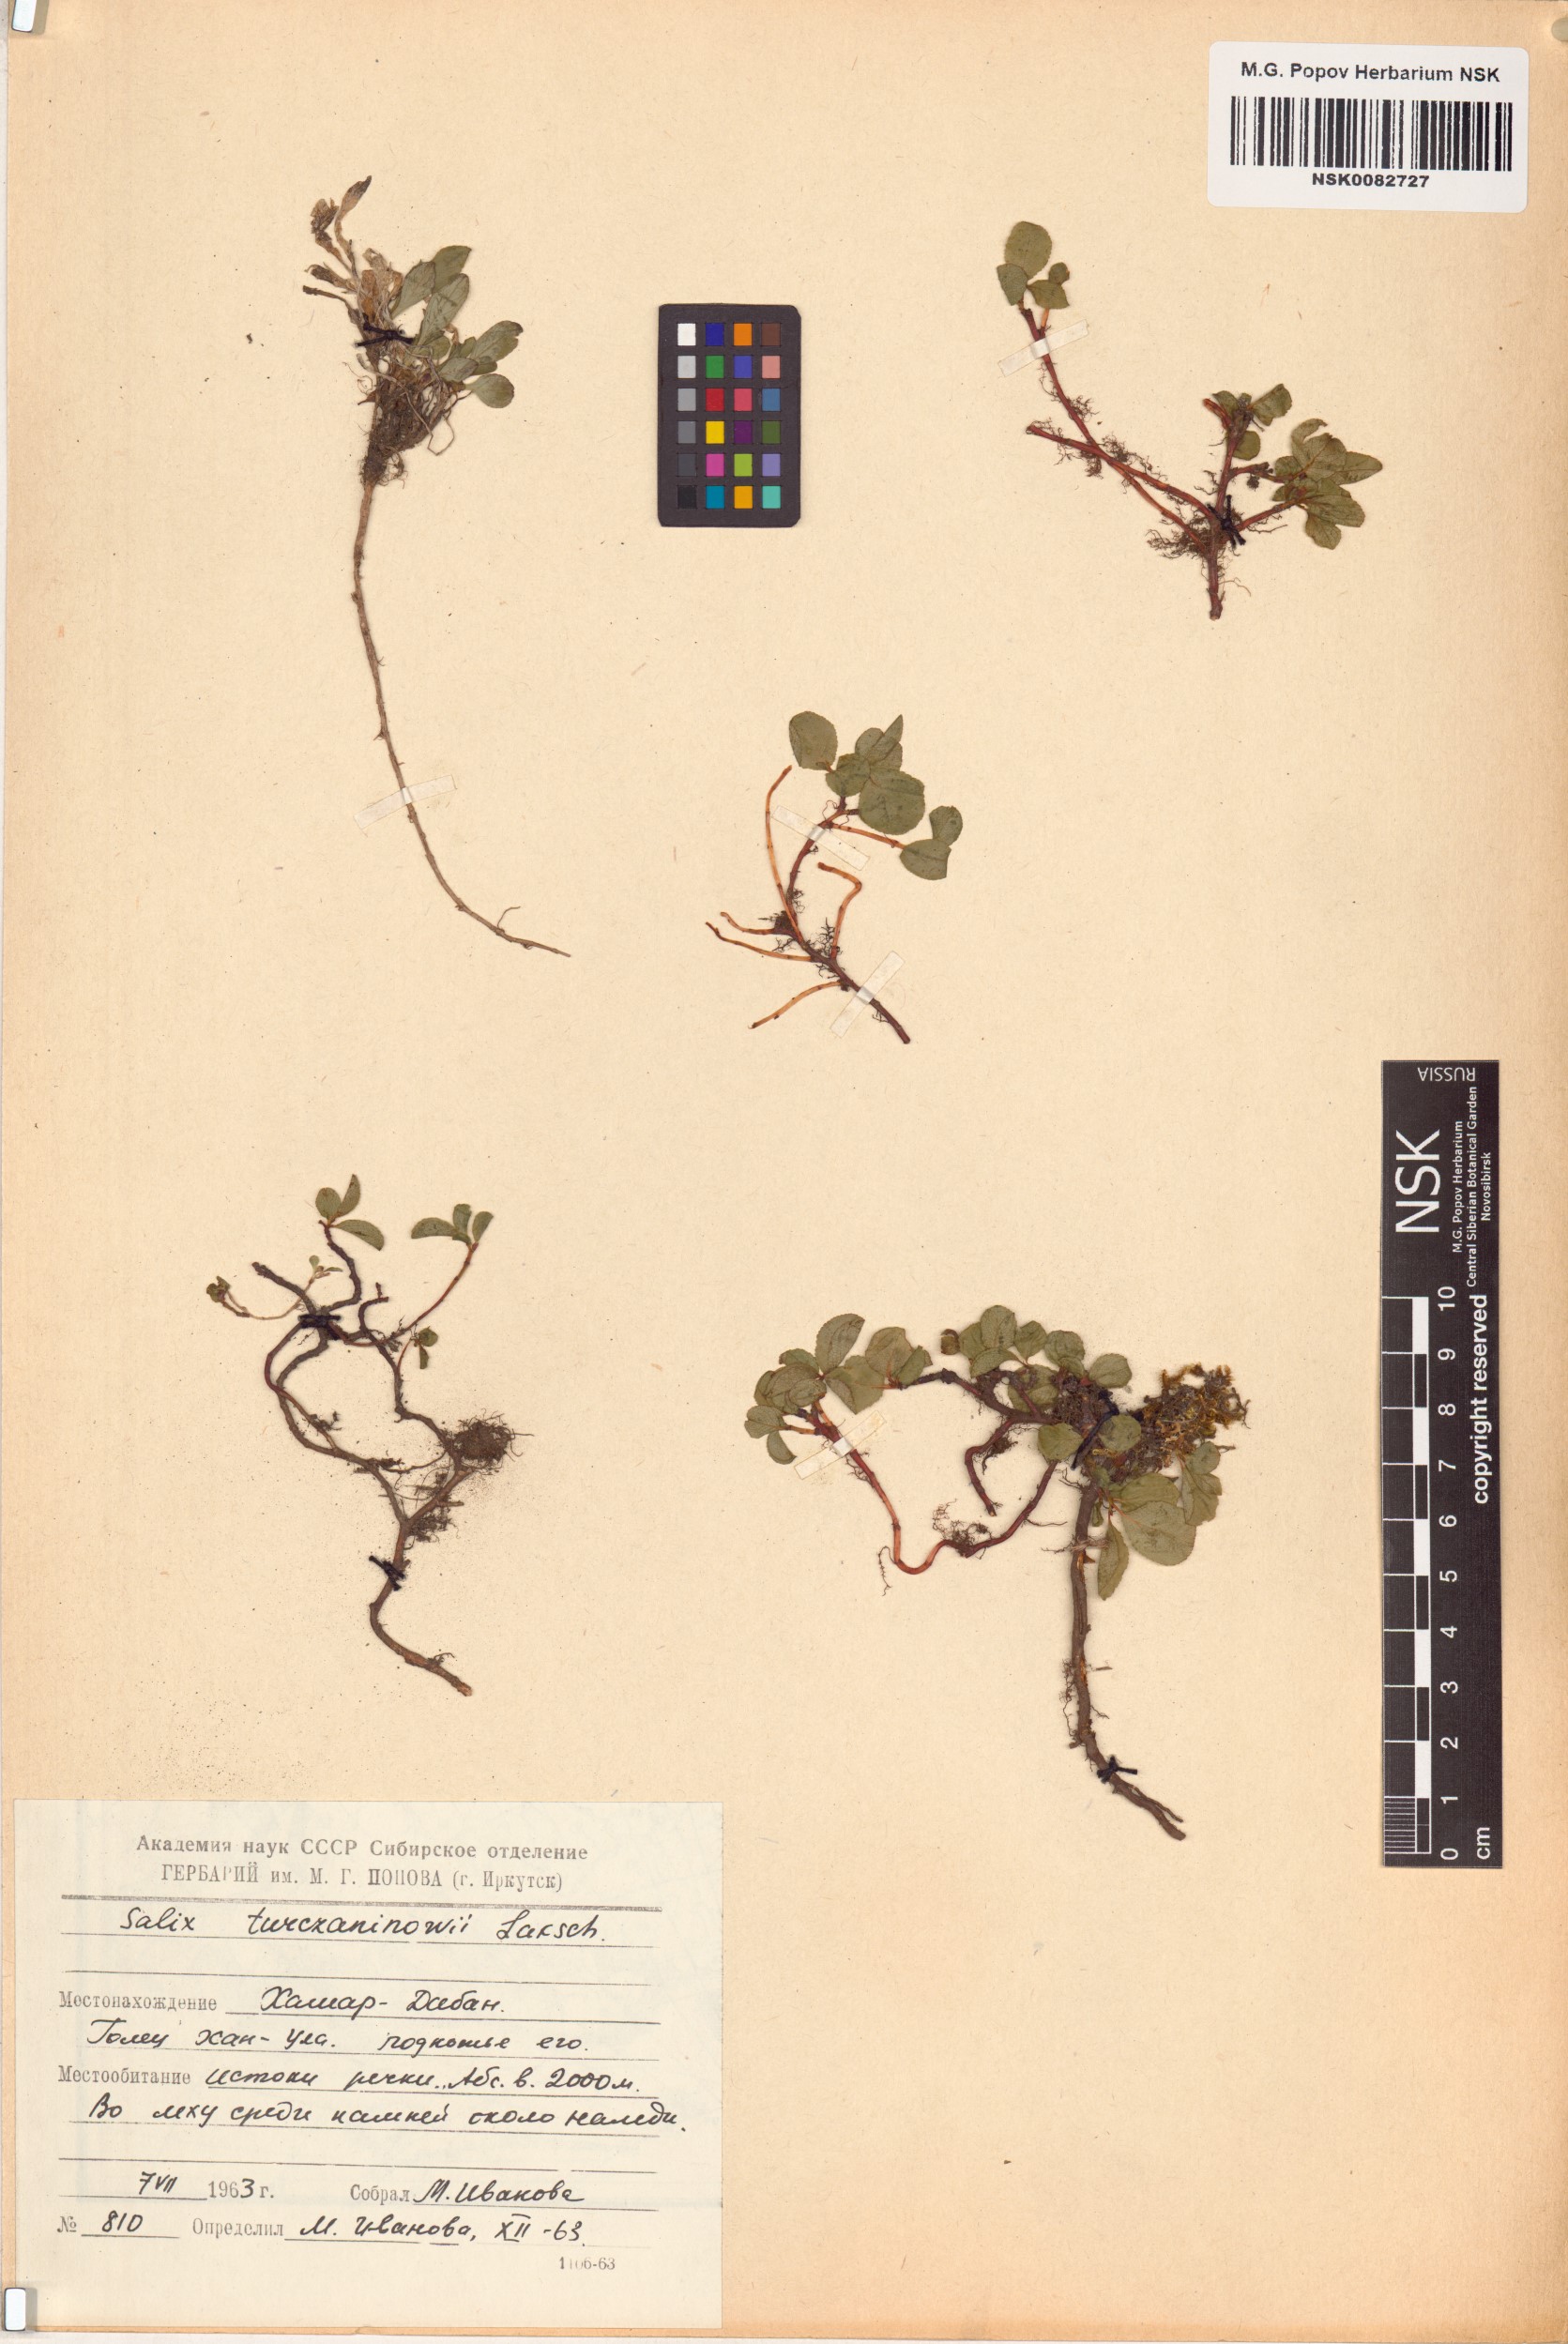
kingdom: Plantae
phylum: Tracheophyta
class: Magnoliopsida
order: Malpighiales
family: Salicaceae
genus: Salix
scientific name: Salix turczaninowii
